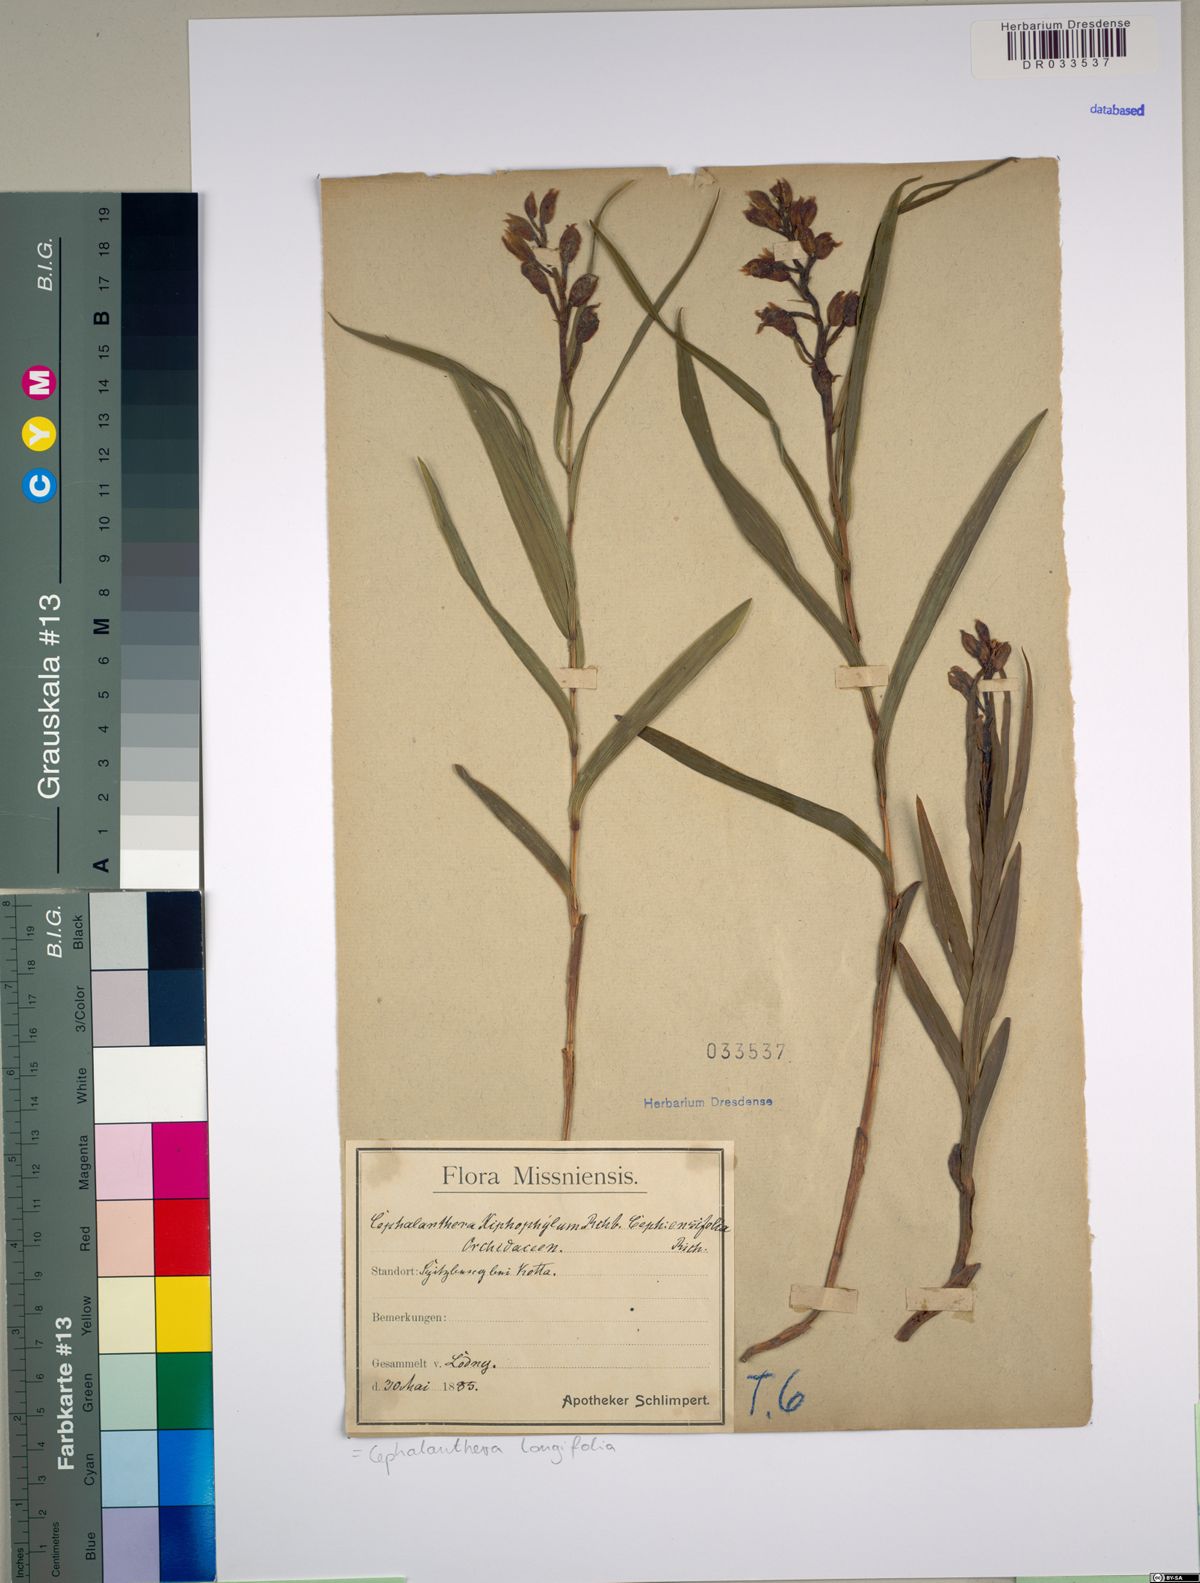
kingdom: Plantae
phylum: Tracheophyta
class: Liliopsida
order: Asparagales
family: Orchidaceae
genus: Cephalanthera
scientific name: Cephalanthera longifolia
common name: Narrow-leaved helleborine
